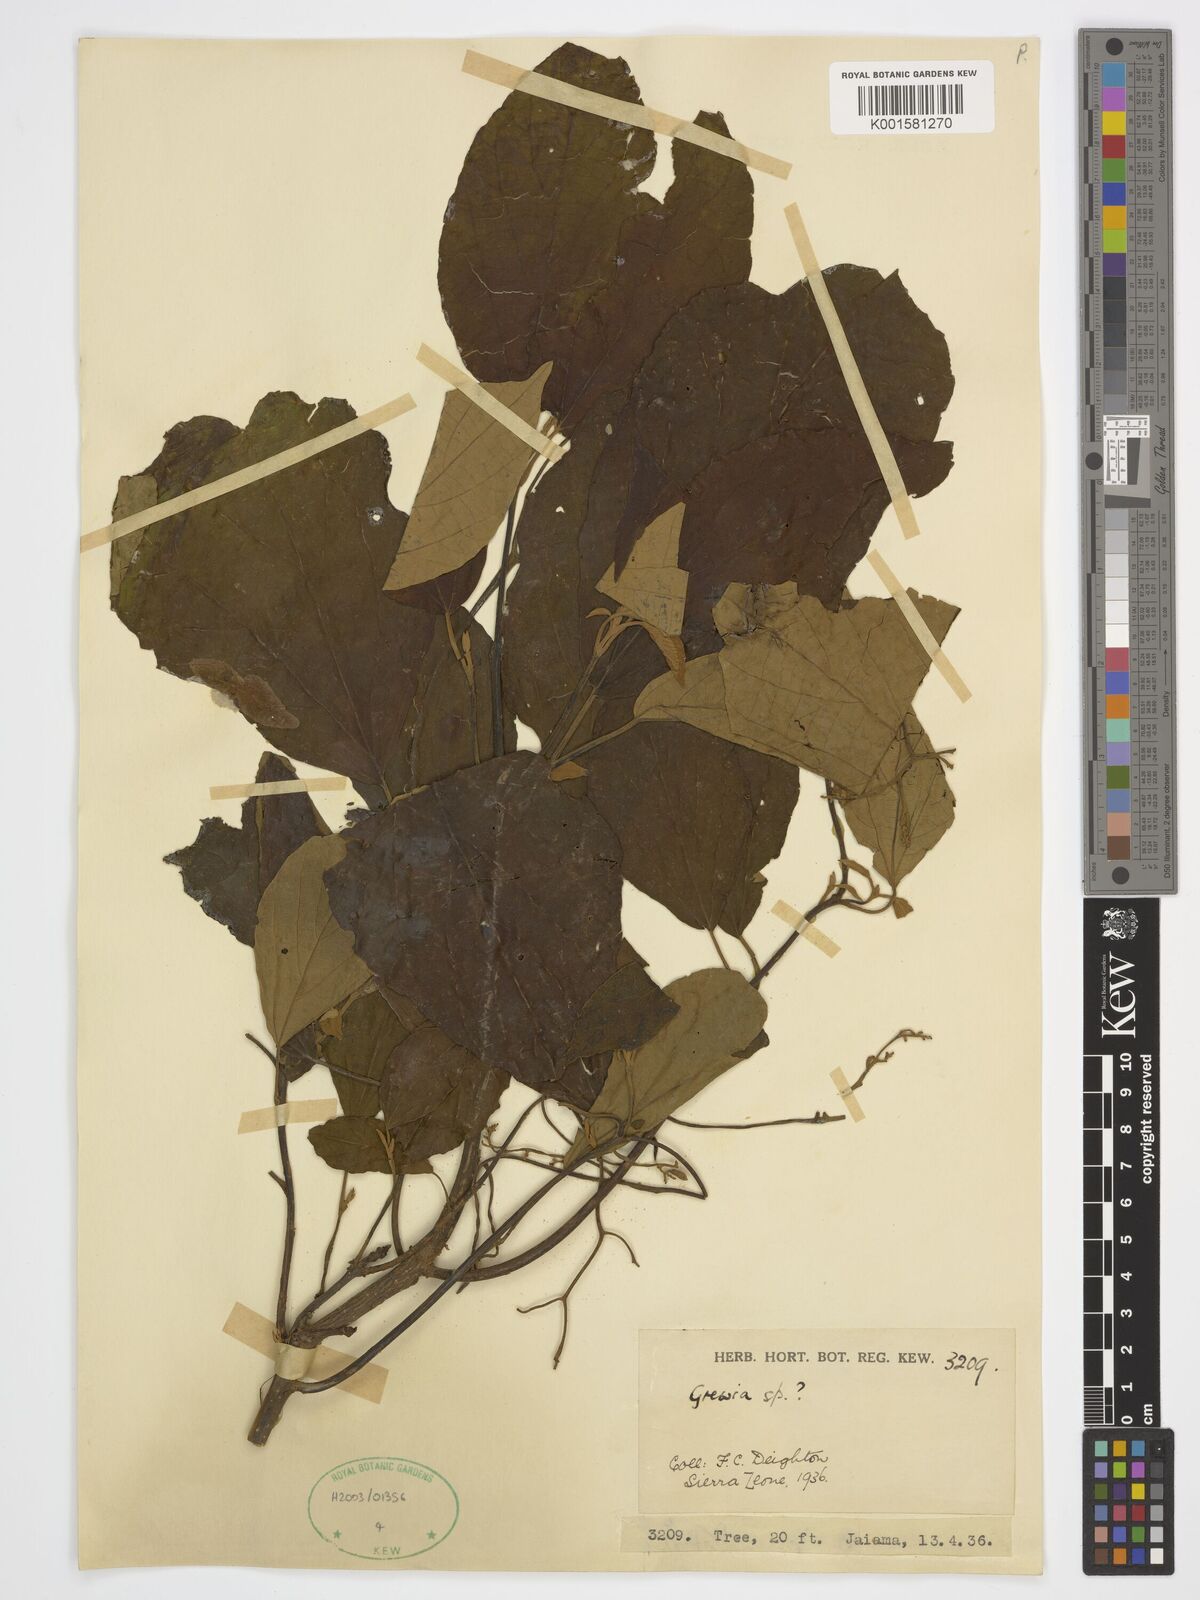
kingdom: Plantae
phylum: Tracheophyta
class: Magnoliopsida
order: Malvales
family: Malvaceae
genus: Grewia
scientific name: Grewia
